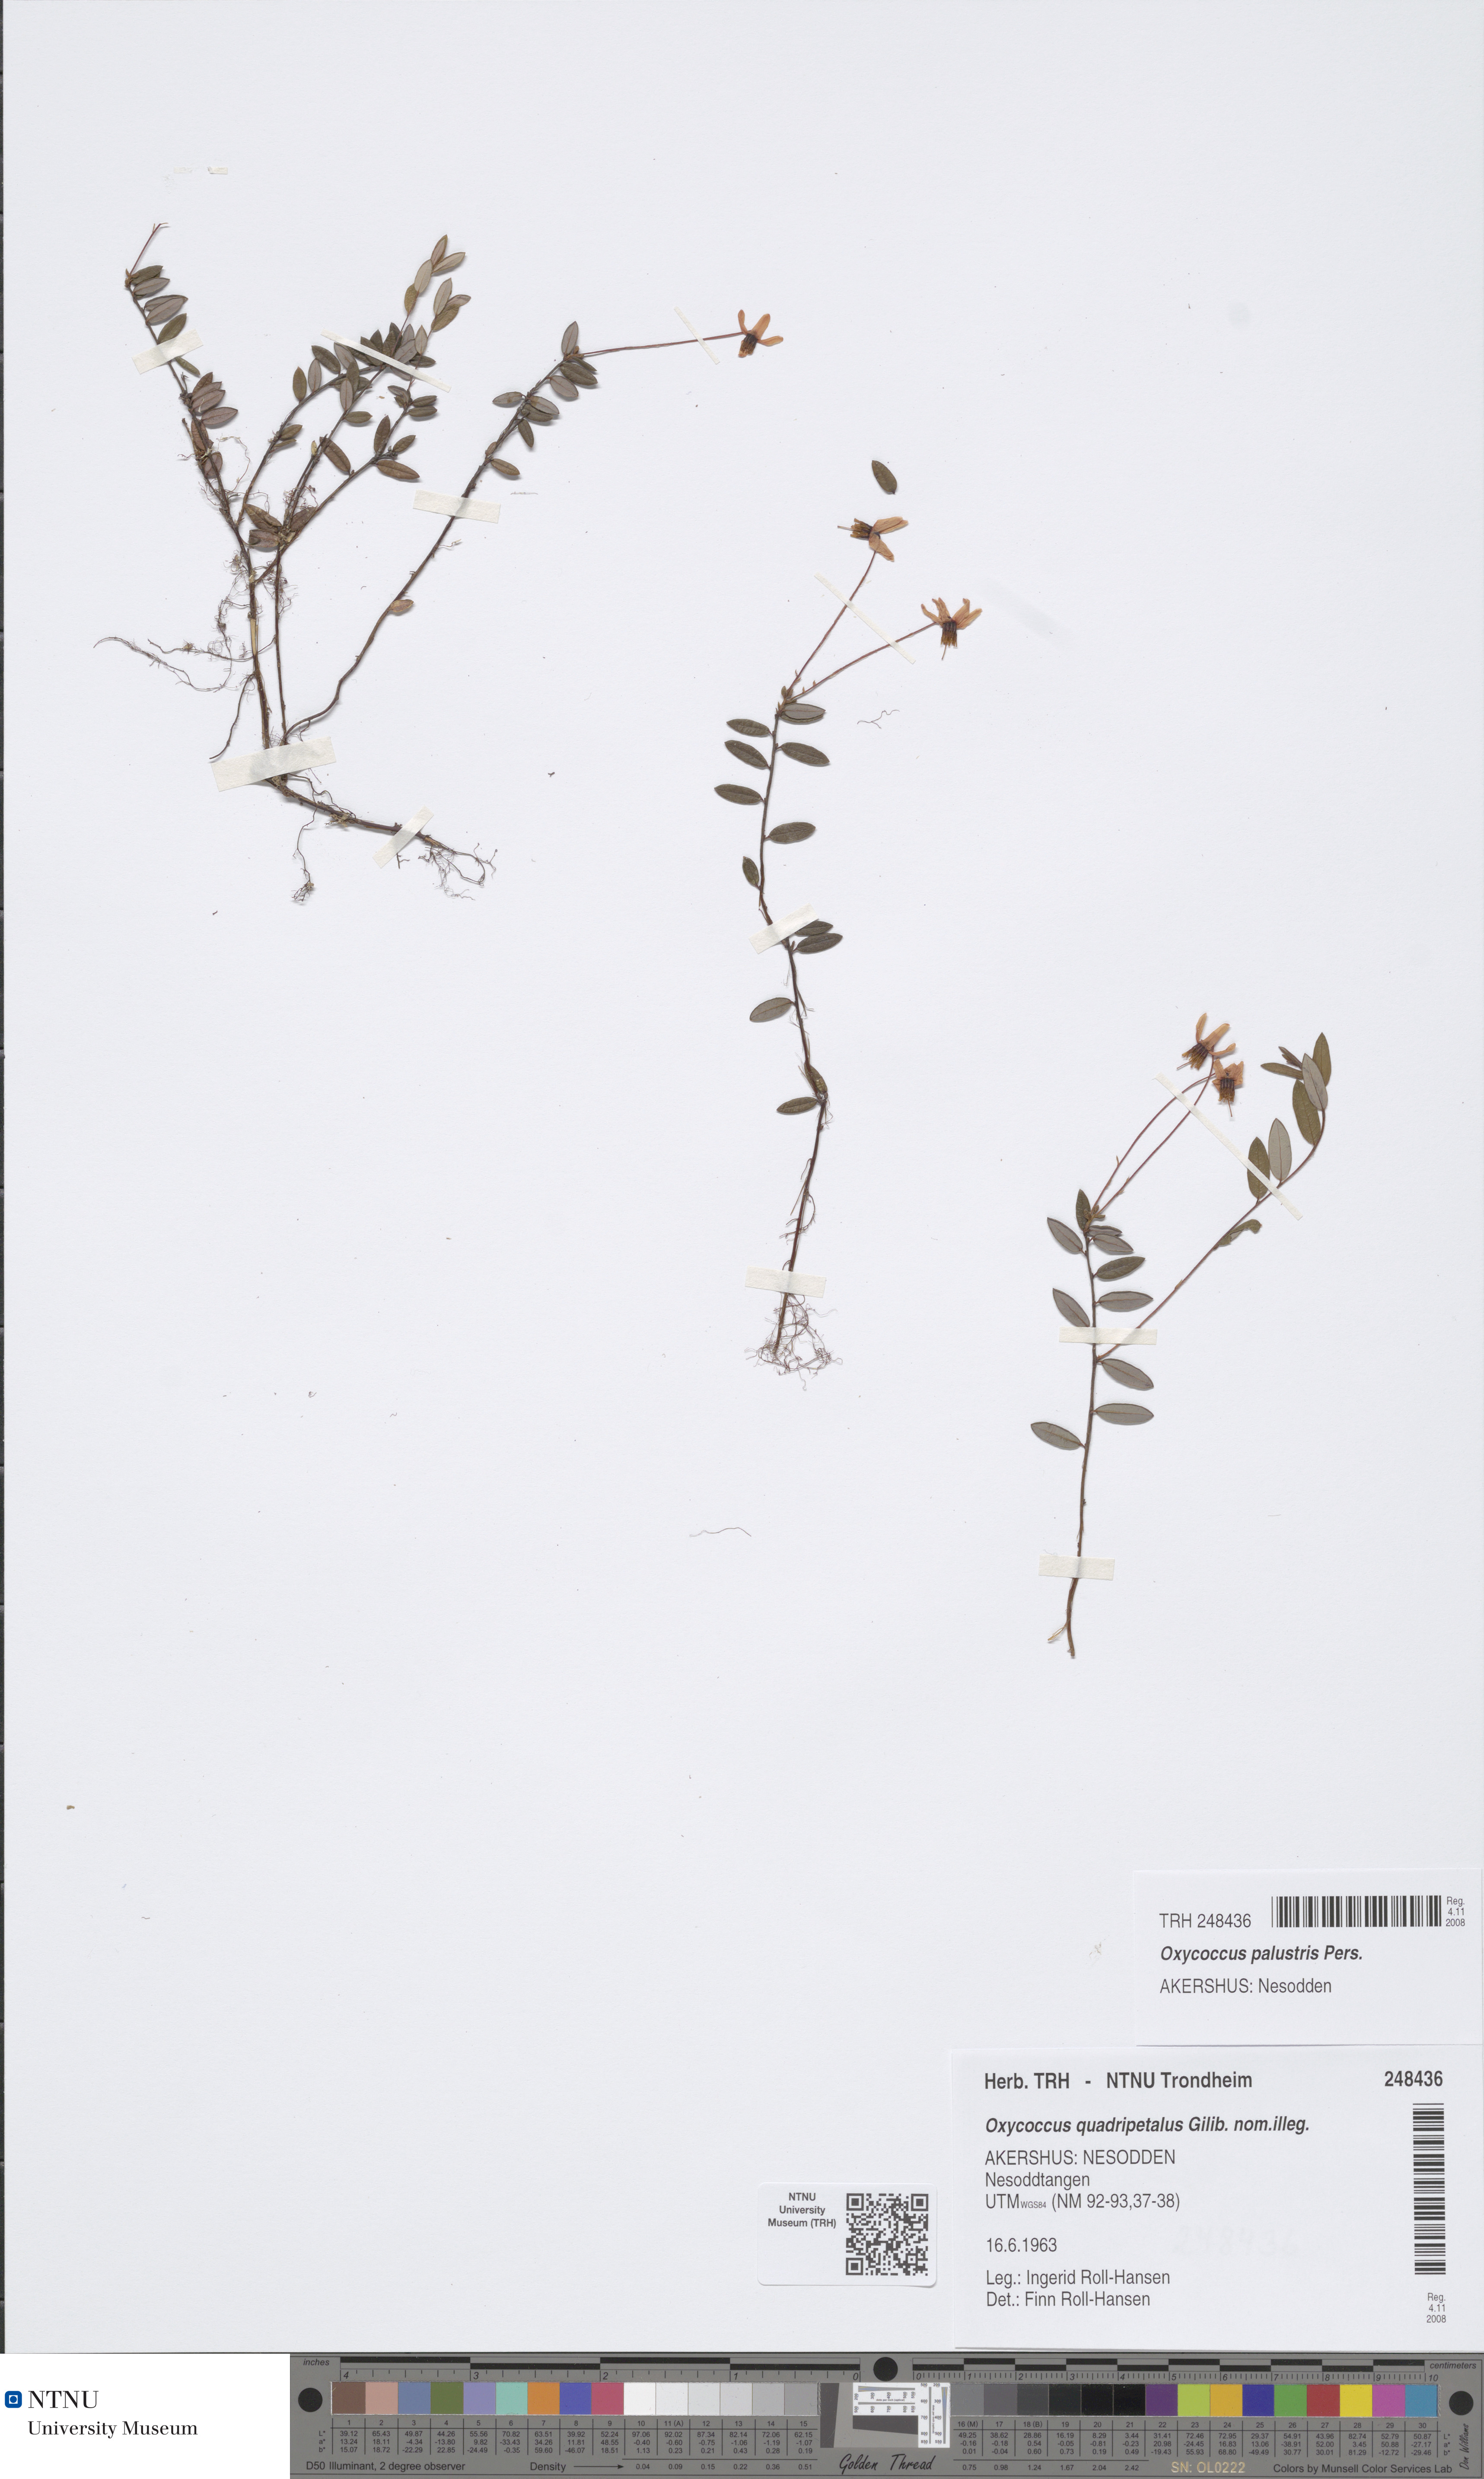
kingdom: Plantae
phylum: Tracheophyta
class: Magnoliopsida
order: Ericales
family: Ericaceae
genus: Vaccinium
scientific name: Vaccinium oxycoccos
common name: Cranberry
